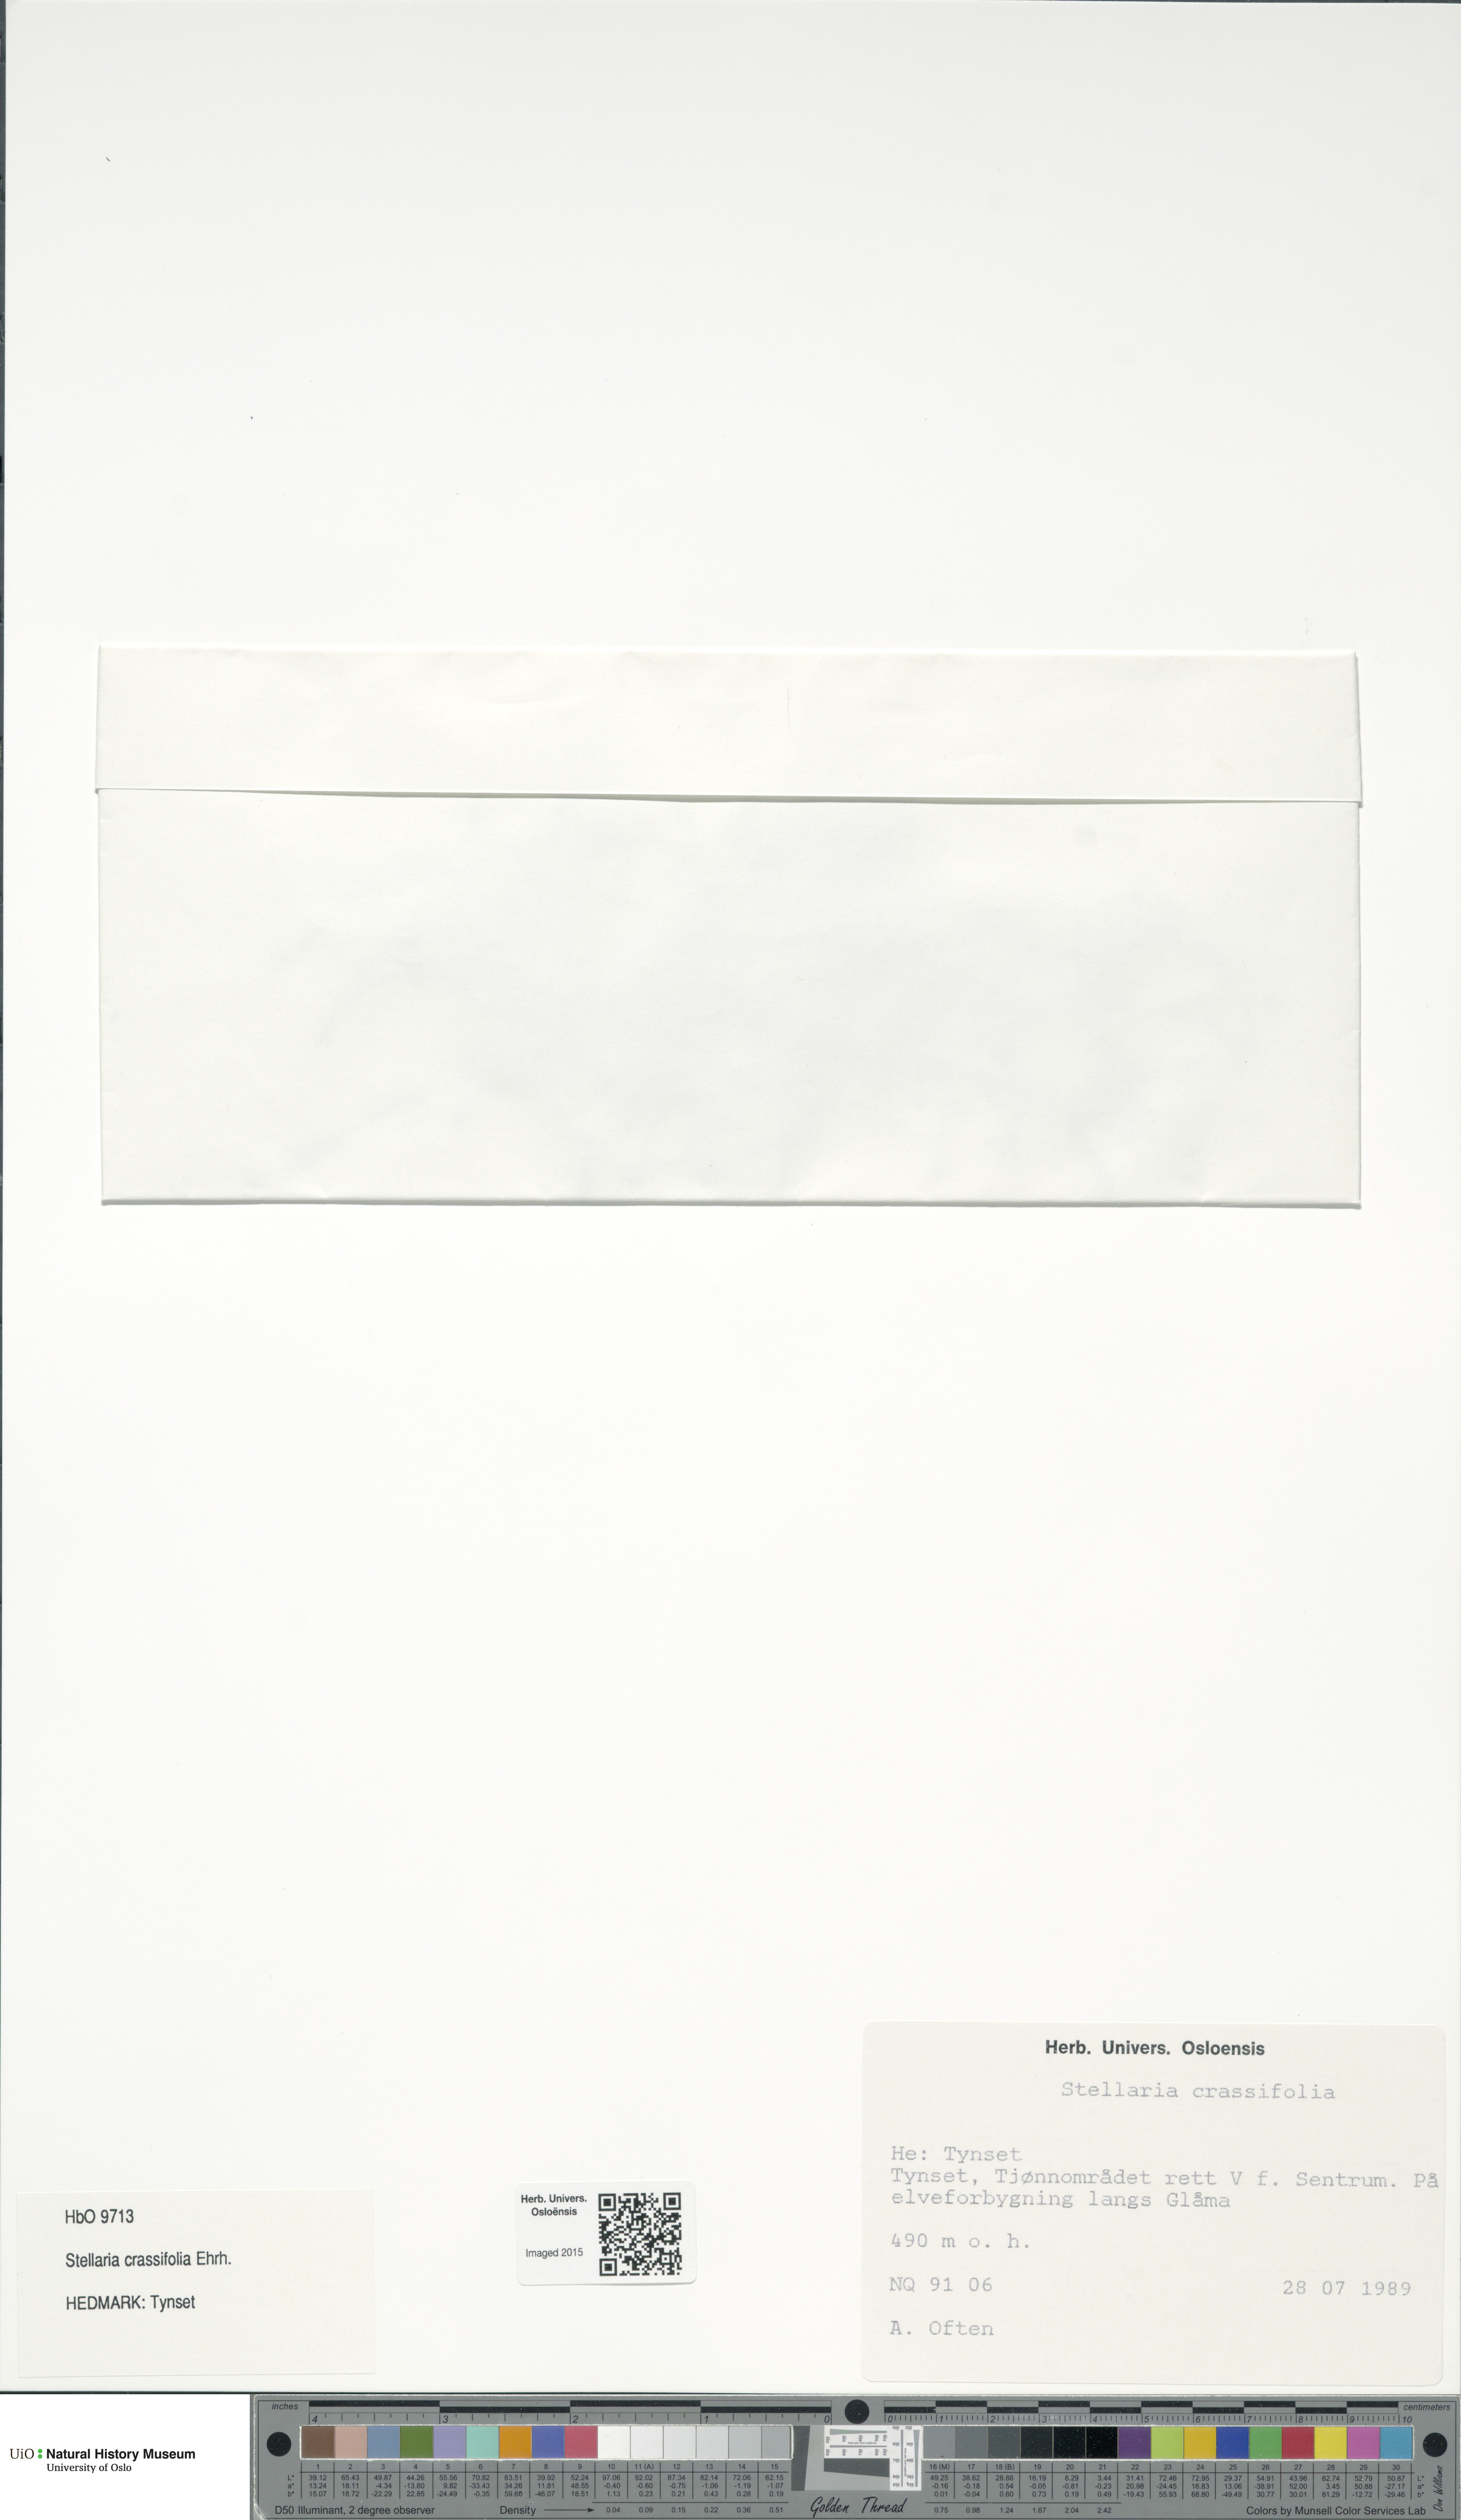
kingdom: Plantae
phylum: Tracheophyta
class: Magnoliopsida
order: Caryophyllales
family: Caryophyllaceae
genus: Stellaria
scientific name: Stellaria crassifolia
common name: Fleshy starwort
